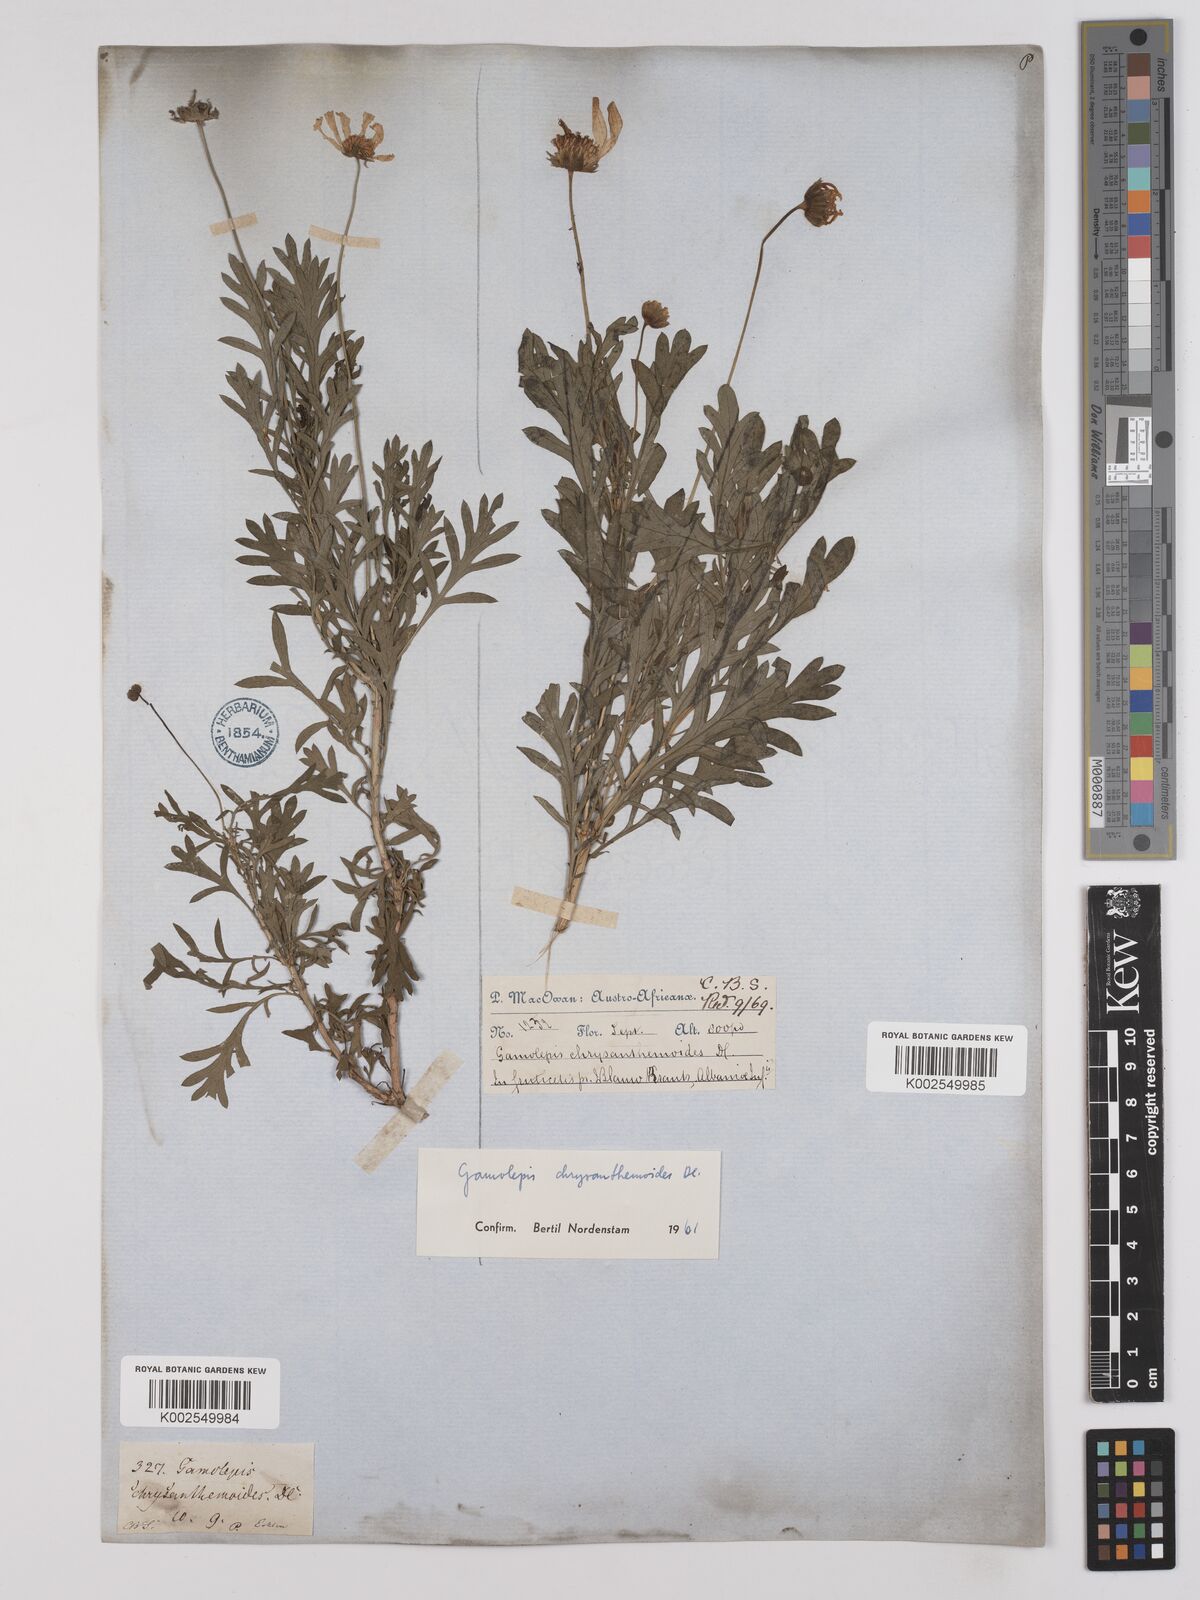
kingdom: Plantae
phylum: Tracheophyta
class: Magnoliopsida
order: Asterales
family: Asteraceae
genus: Euryops
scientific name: Euryops chrysanthemoides
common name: Bull's eye
